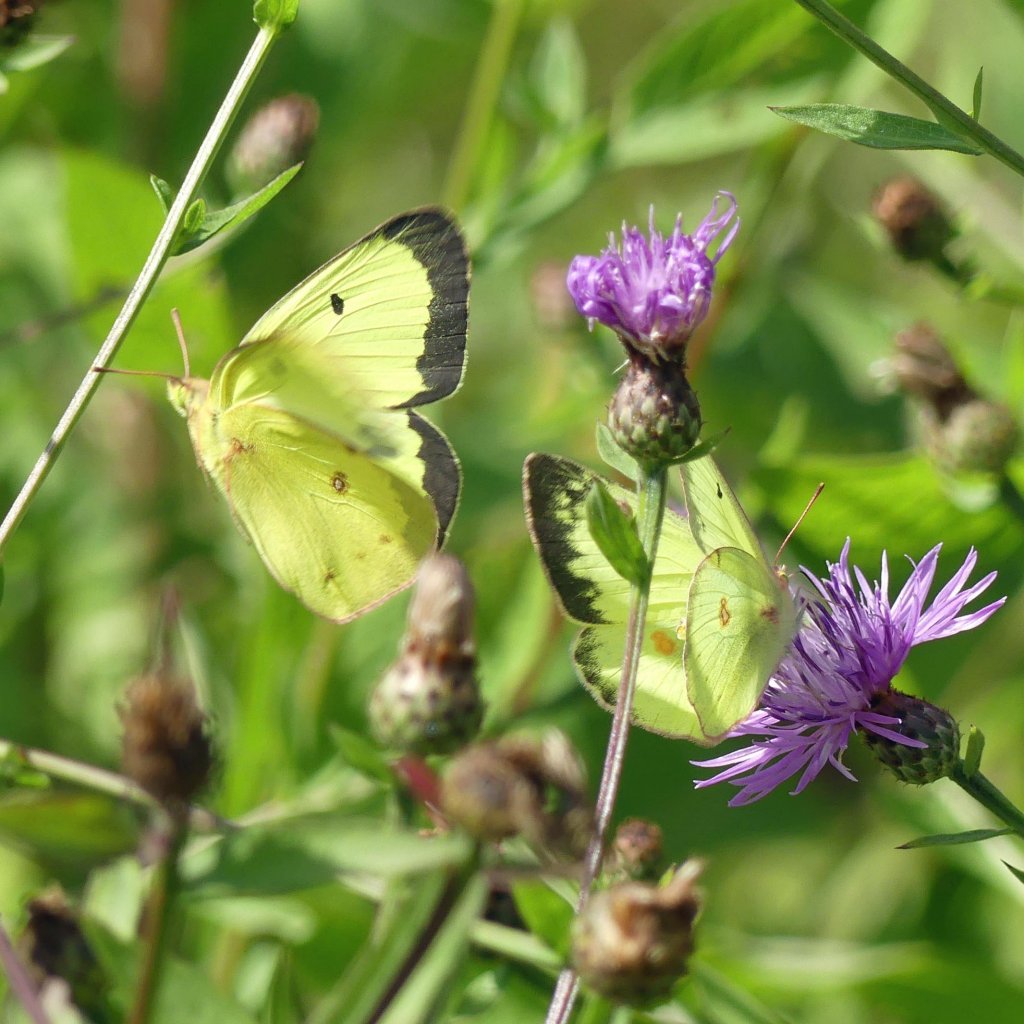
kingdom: Animalia
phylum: Arthropoda
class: Insecta
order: Lepidoptera
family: Pieridae
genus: Colias
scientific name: Colias philodice
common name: Clouded Sulphur
